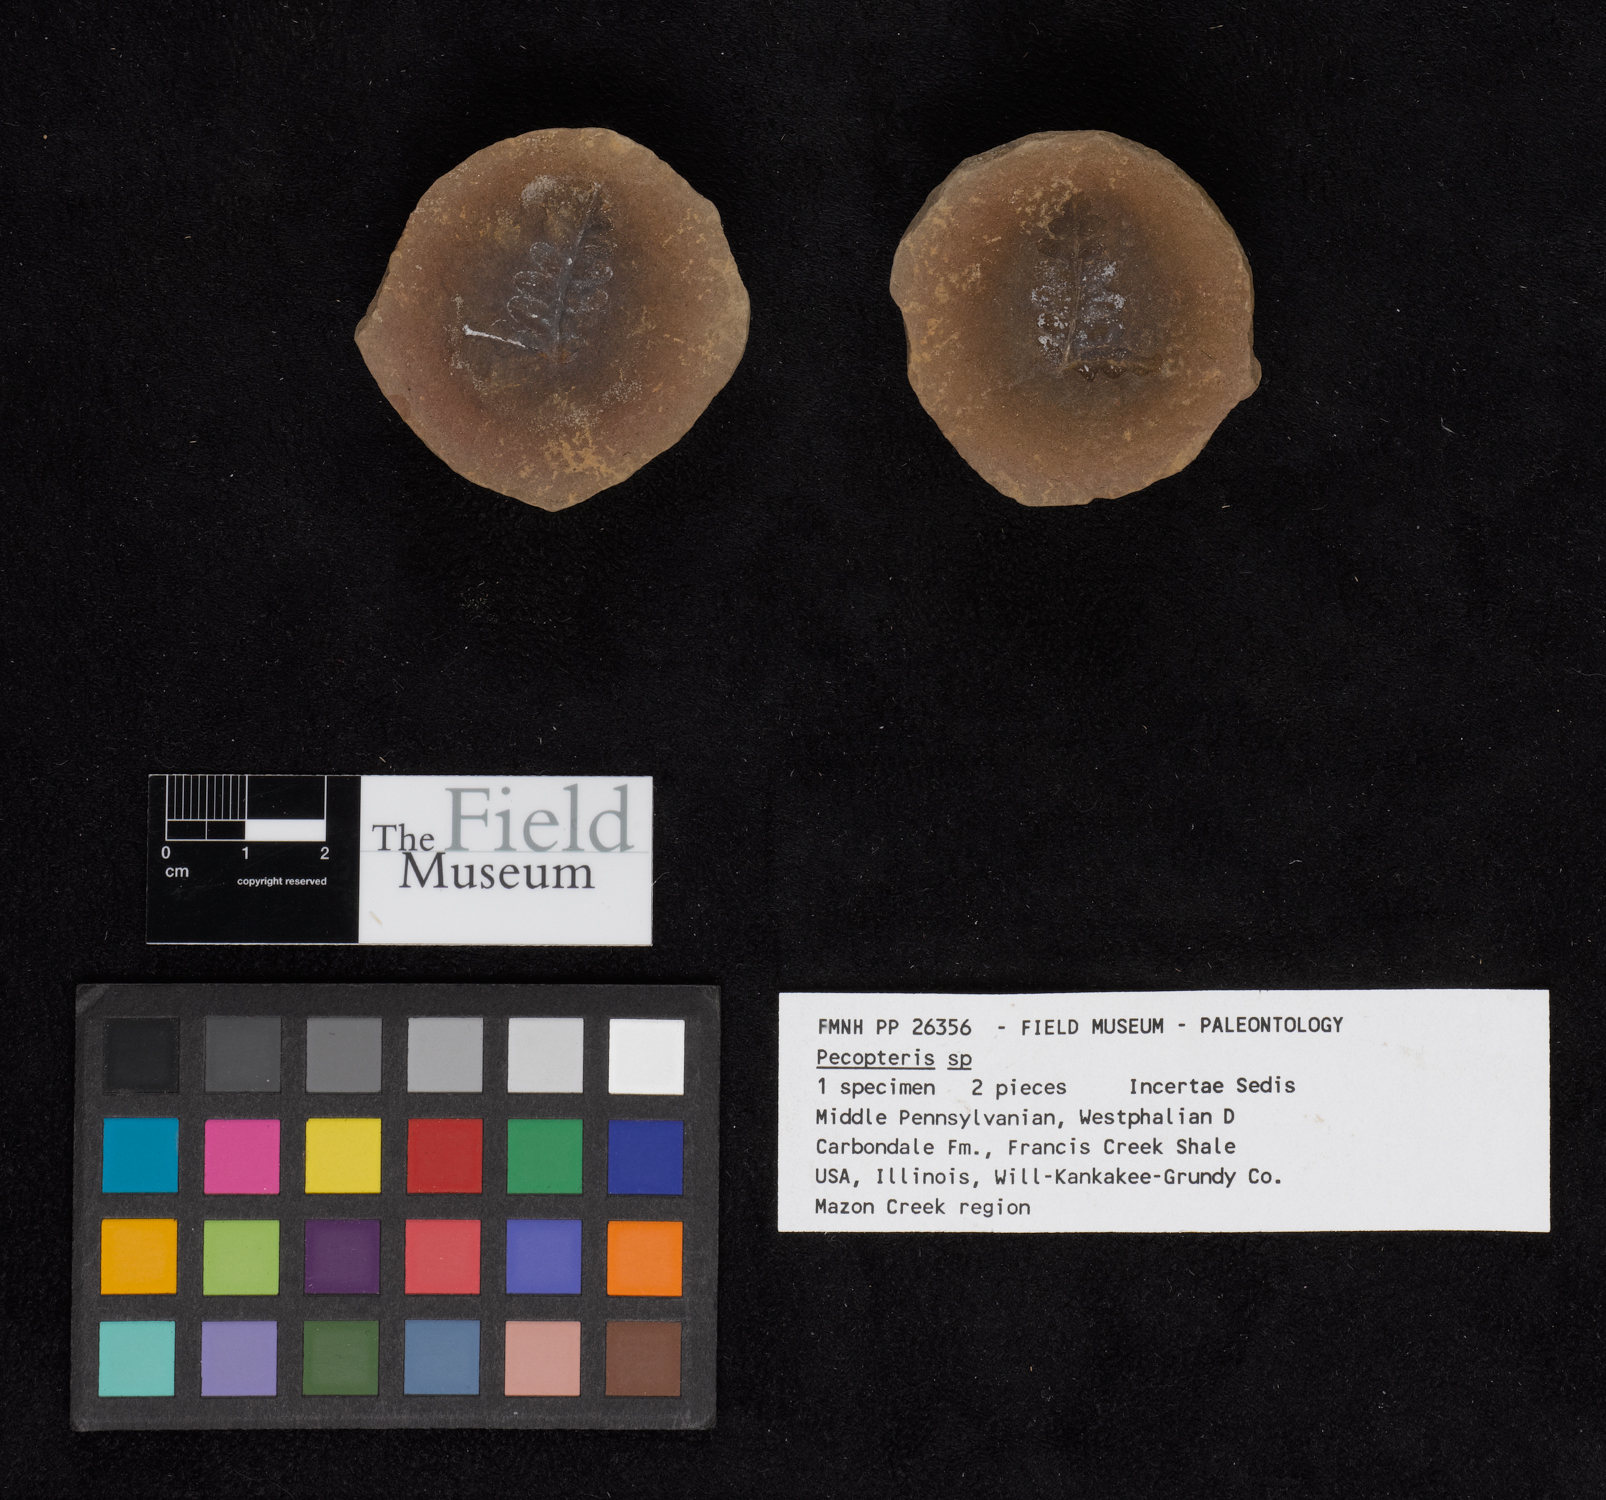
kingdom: Plantae
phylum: Tracheophyta
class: Polypodiopsida
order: Marattiales
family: Asterothecaceae
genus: Pecopteris
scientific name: Pecopteris
